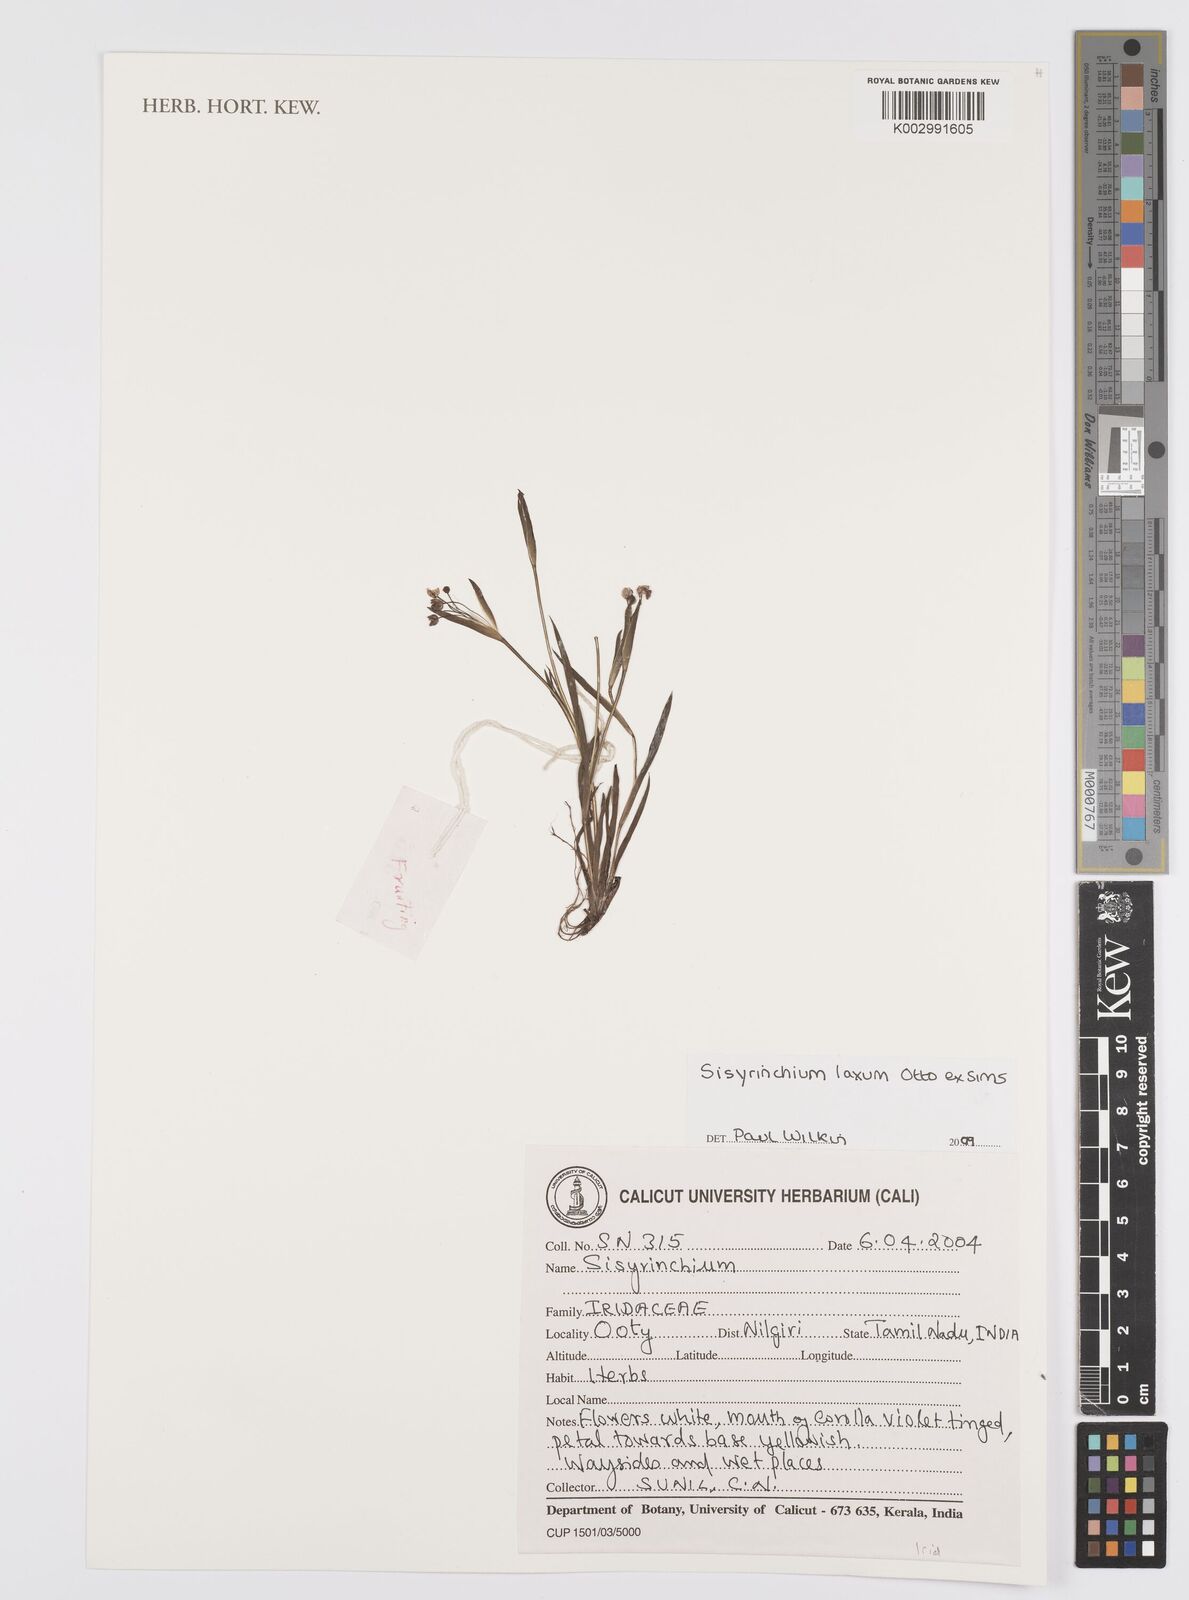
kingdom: Plantae
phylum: Tracheophyta
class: Liliopsida
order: Asparagales
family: Iridaceae
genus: Sisyrinchium
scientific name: Sisyrinchium laxum
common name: Veined yellow-eyed-grass
